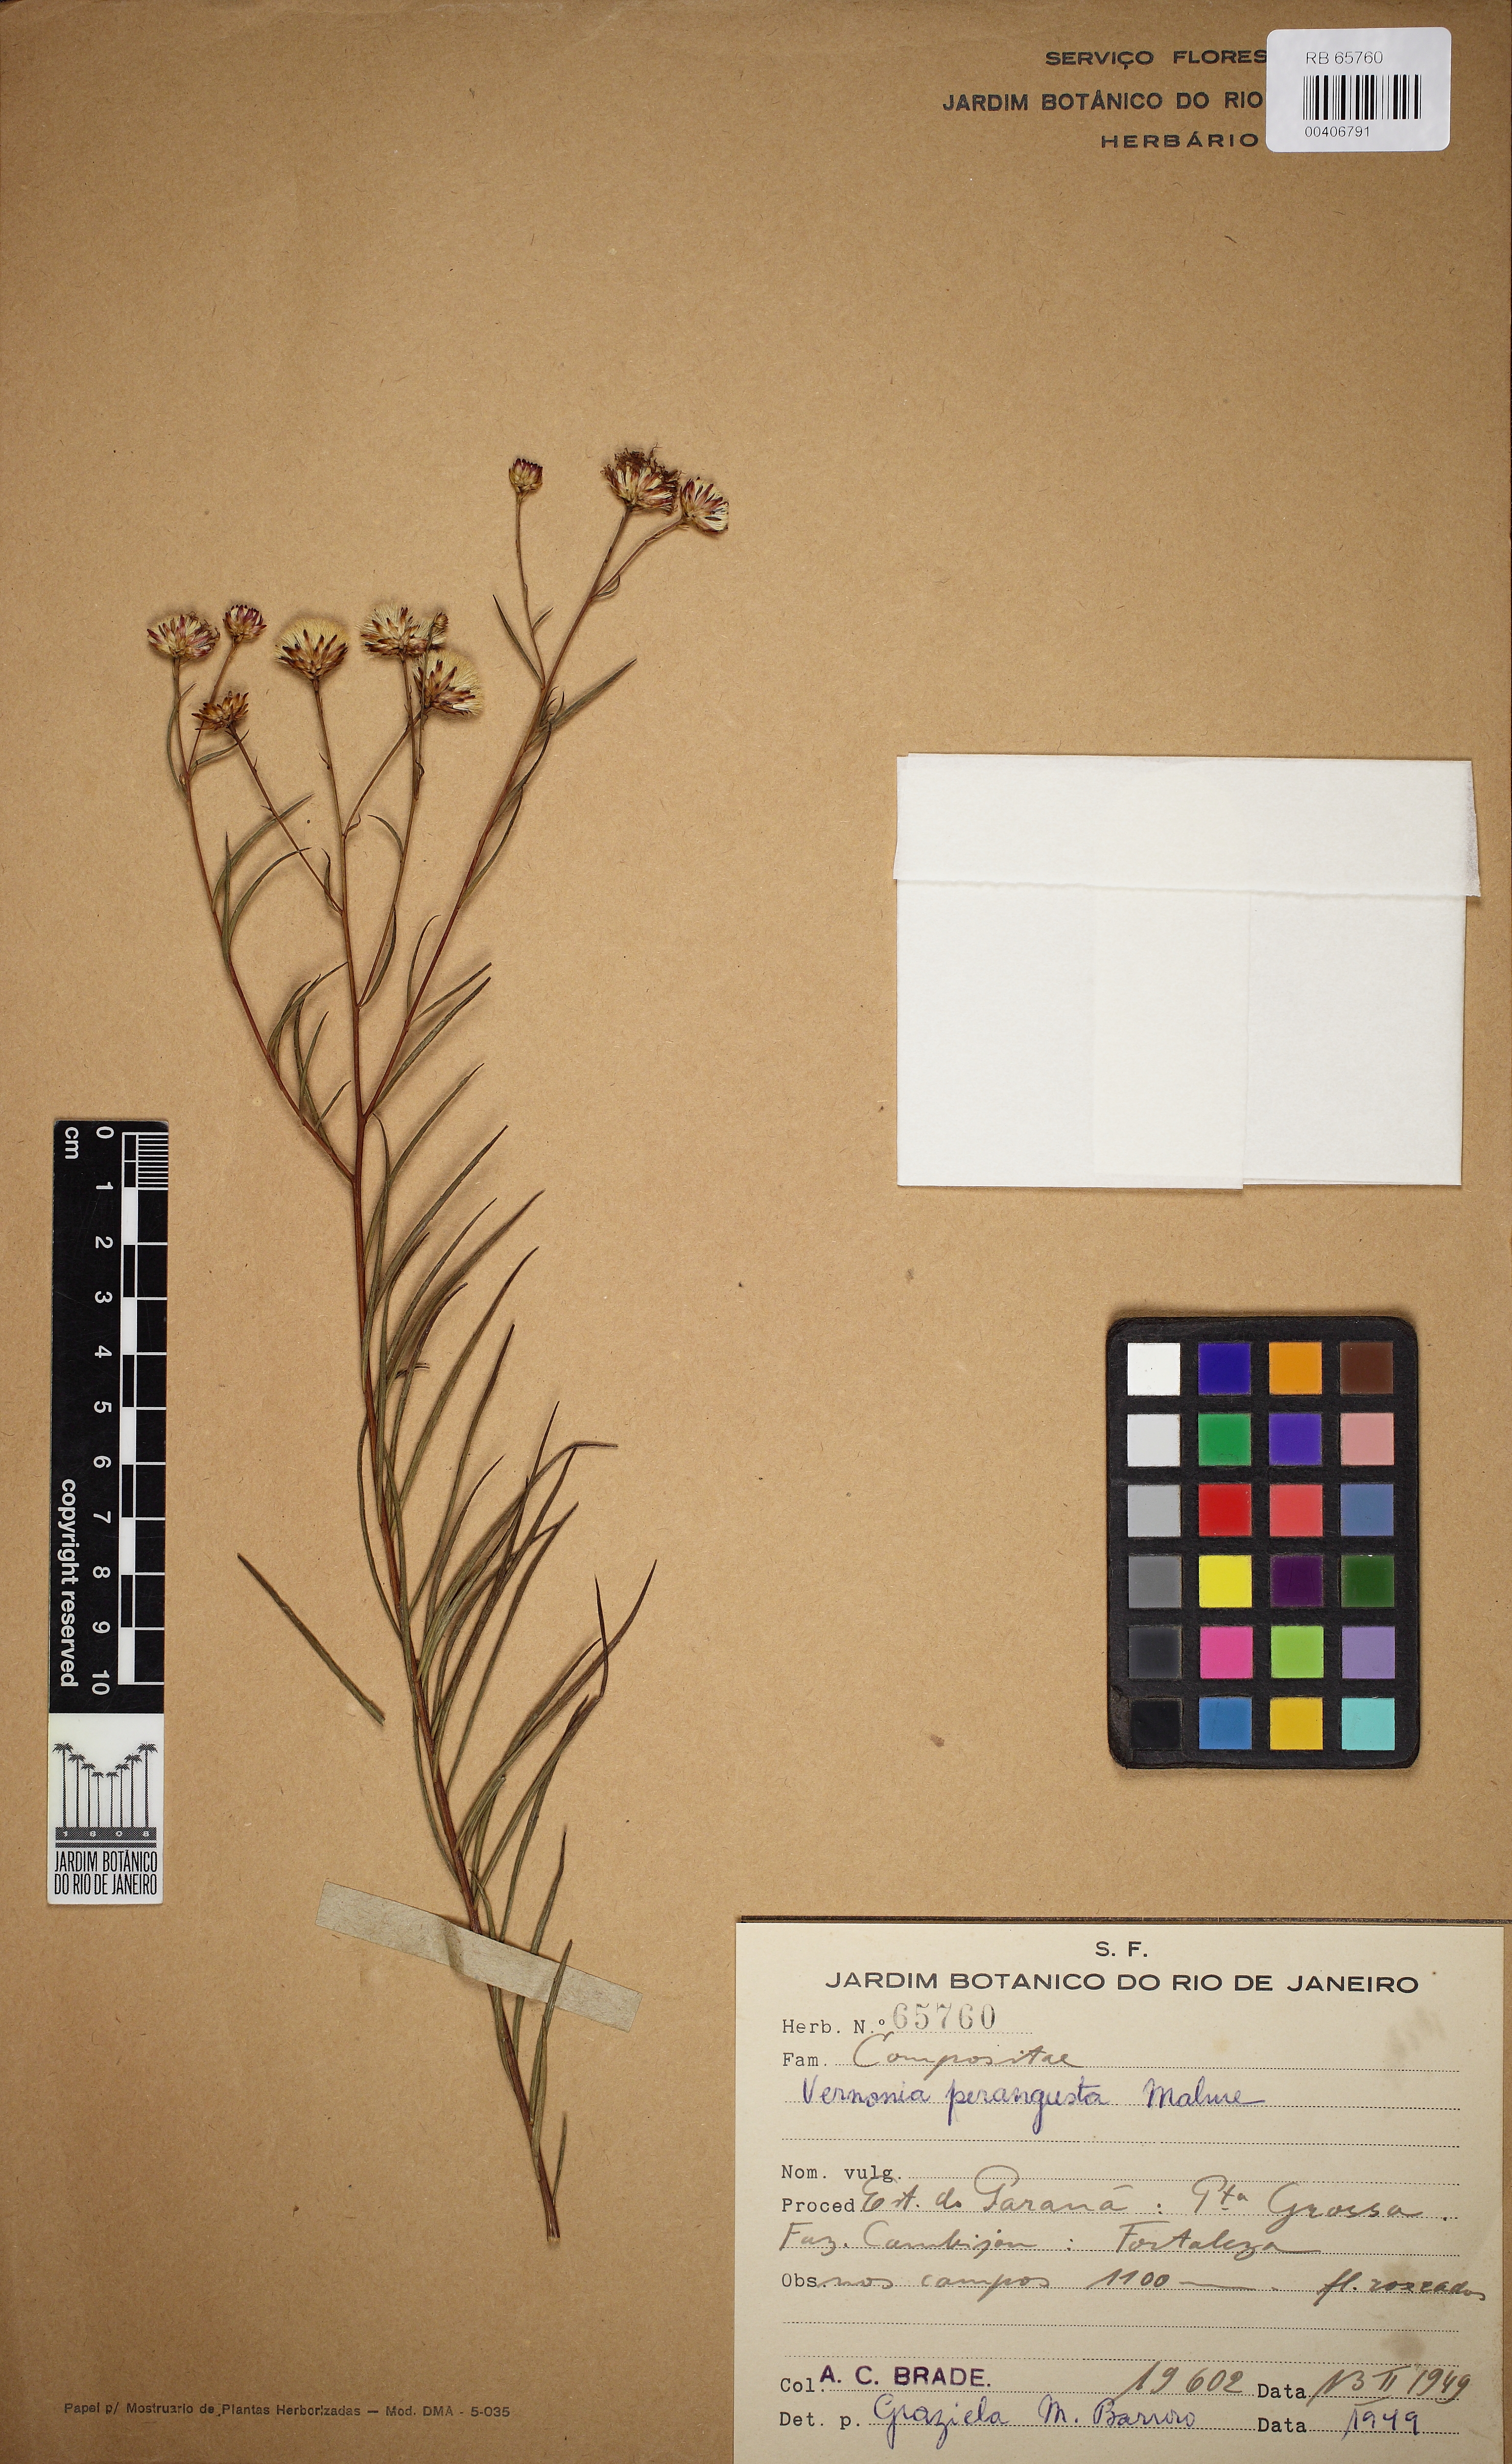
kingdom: Plantae
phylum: Tracheophyta
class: Magnoliopsida
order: Asterales
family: Asteraceae
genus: Vernonanthura
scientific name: Vernonanthura perangusta
